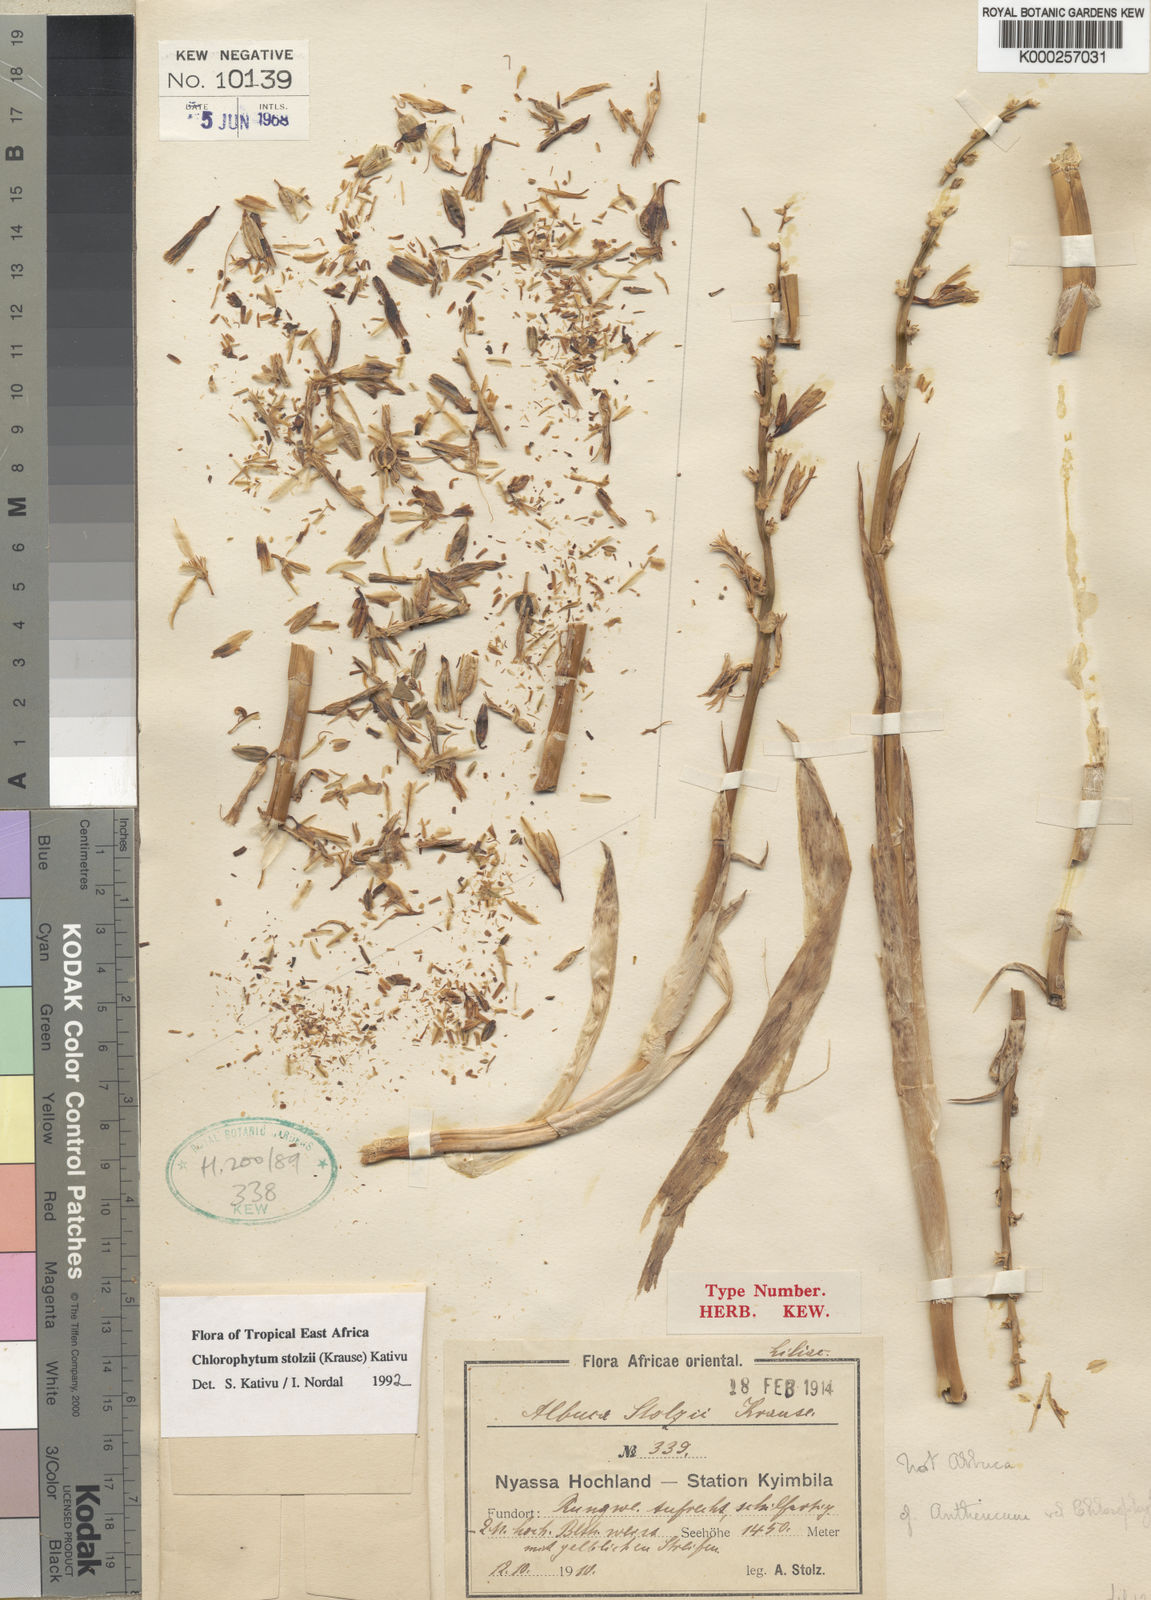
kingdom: Plantae
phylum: Tracheophyta
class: Liliopsida
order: Asparagales
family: Asparagaceae
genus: Chlorophytum
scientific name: Chlorophytum
